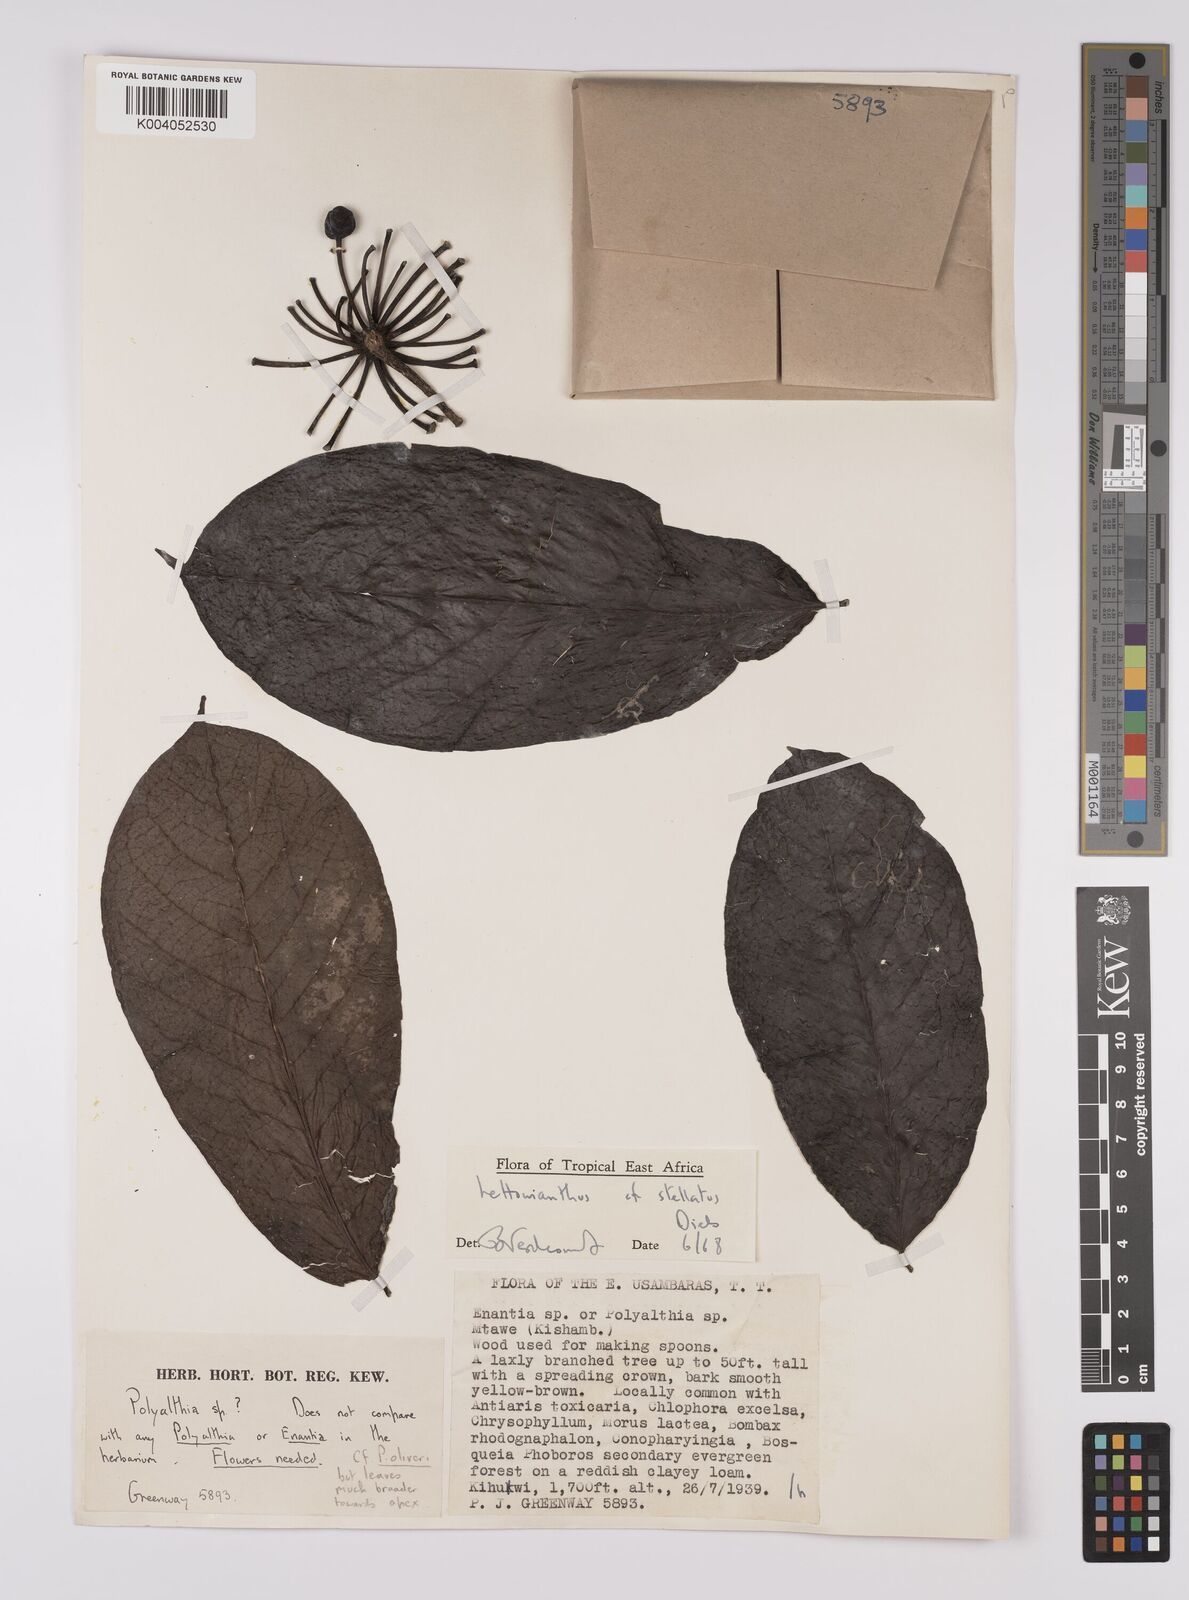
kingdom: Plantae
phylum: Tracheophyta
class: Magnoliopsida
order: Magnoliales
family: Annonaceae
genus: Lettowianthus
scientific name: Lettowianthus
